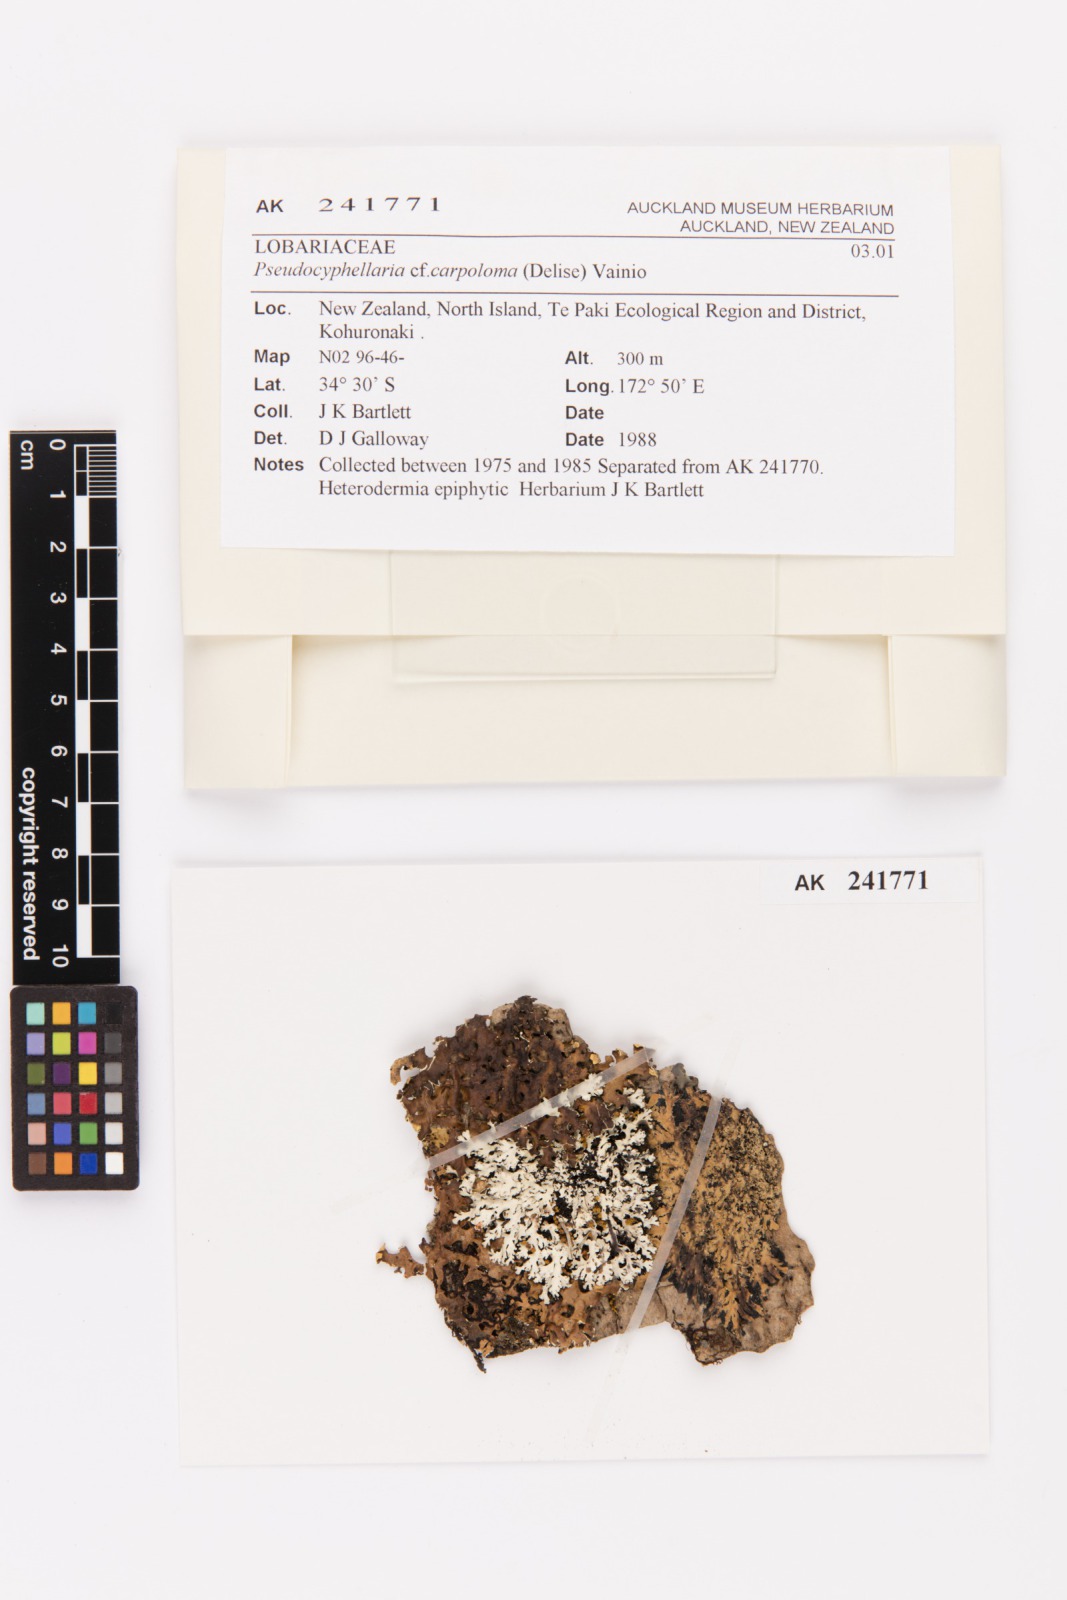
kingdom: Fungi
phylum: Ascomycota
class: Lecanoromycetes
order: Peltigerales
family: Lobariaceae
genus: Pseudocyphellaria
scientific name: Pseudocyphellaria carpoloma
